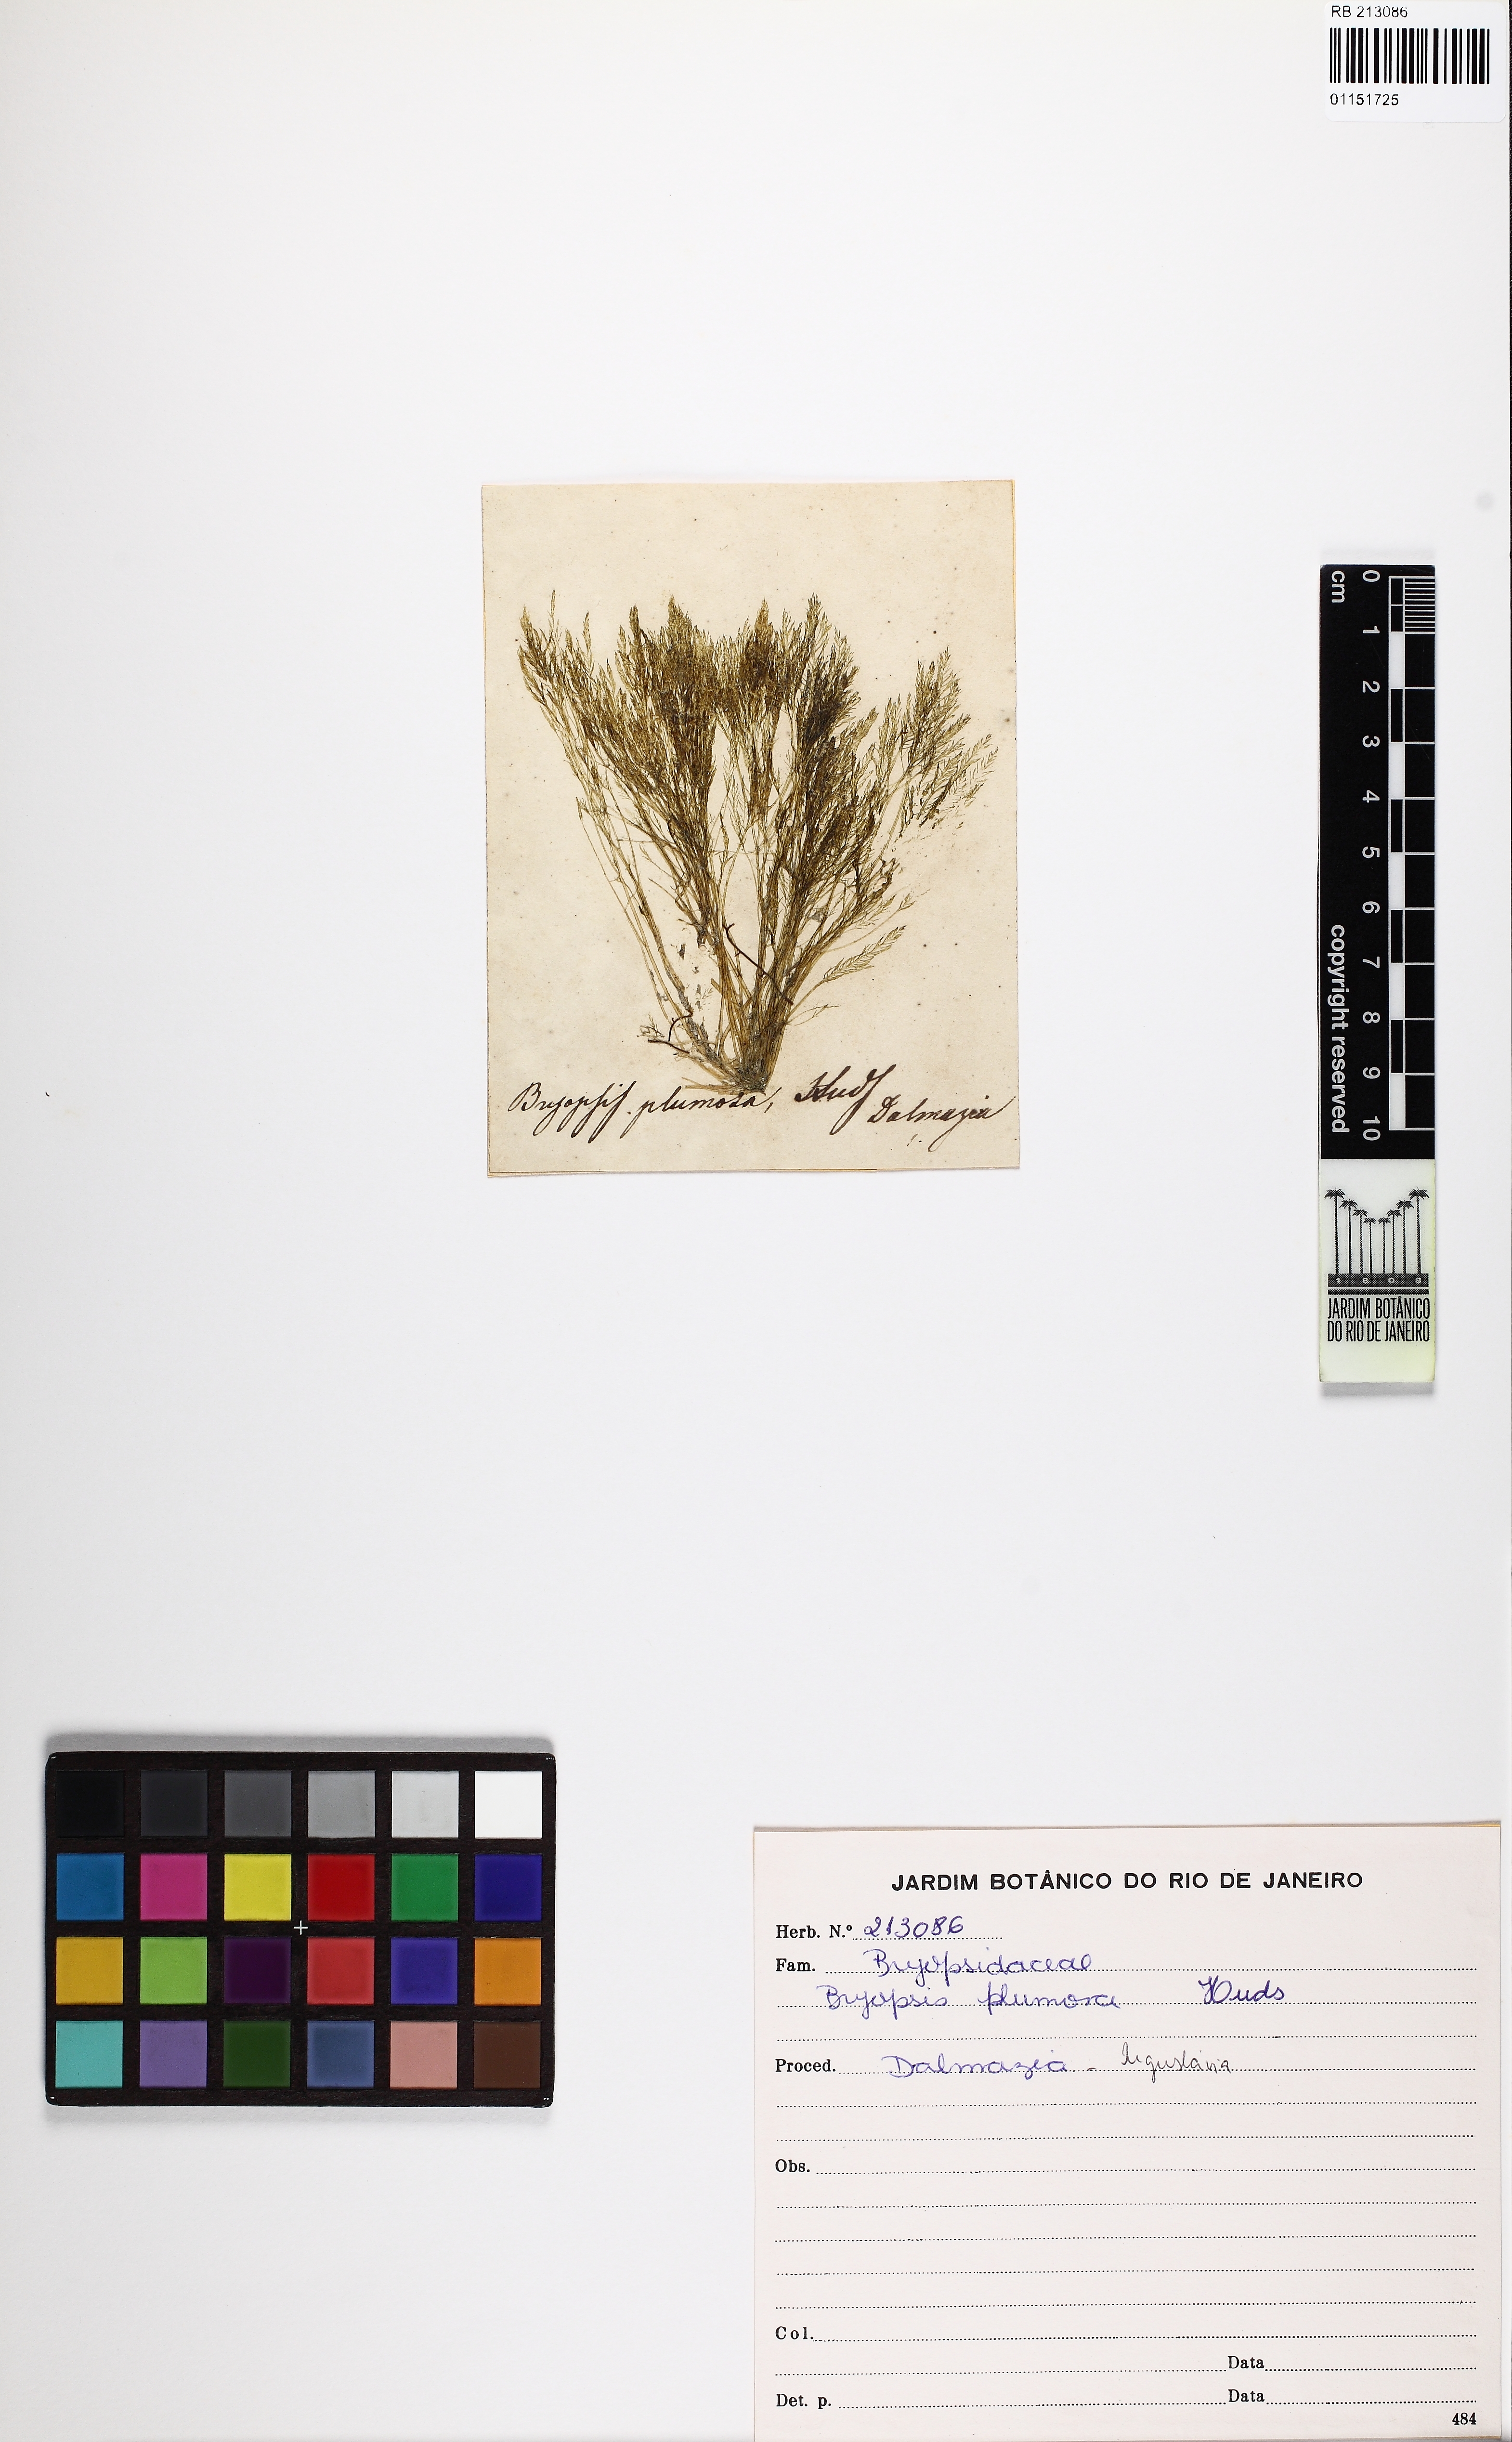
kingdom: Plantae
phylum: Chlorophyta
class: Ulvophyceae
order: Bryopsidales
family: Bryopsidaceae
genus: Bryopsis
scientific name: Bryopsis plumosa
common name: Hen pen
